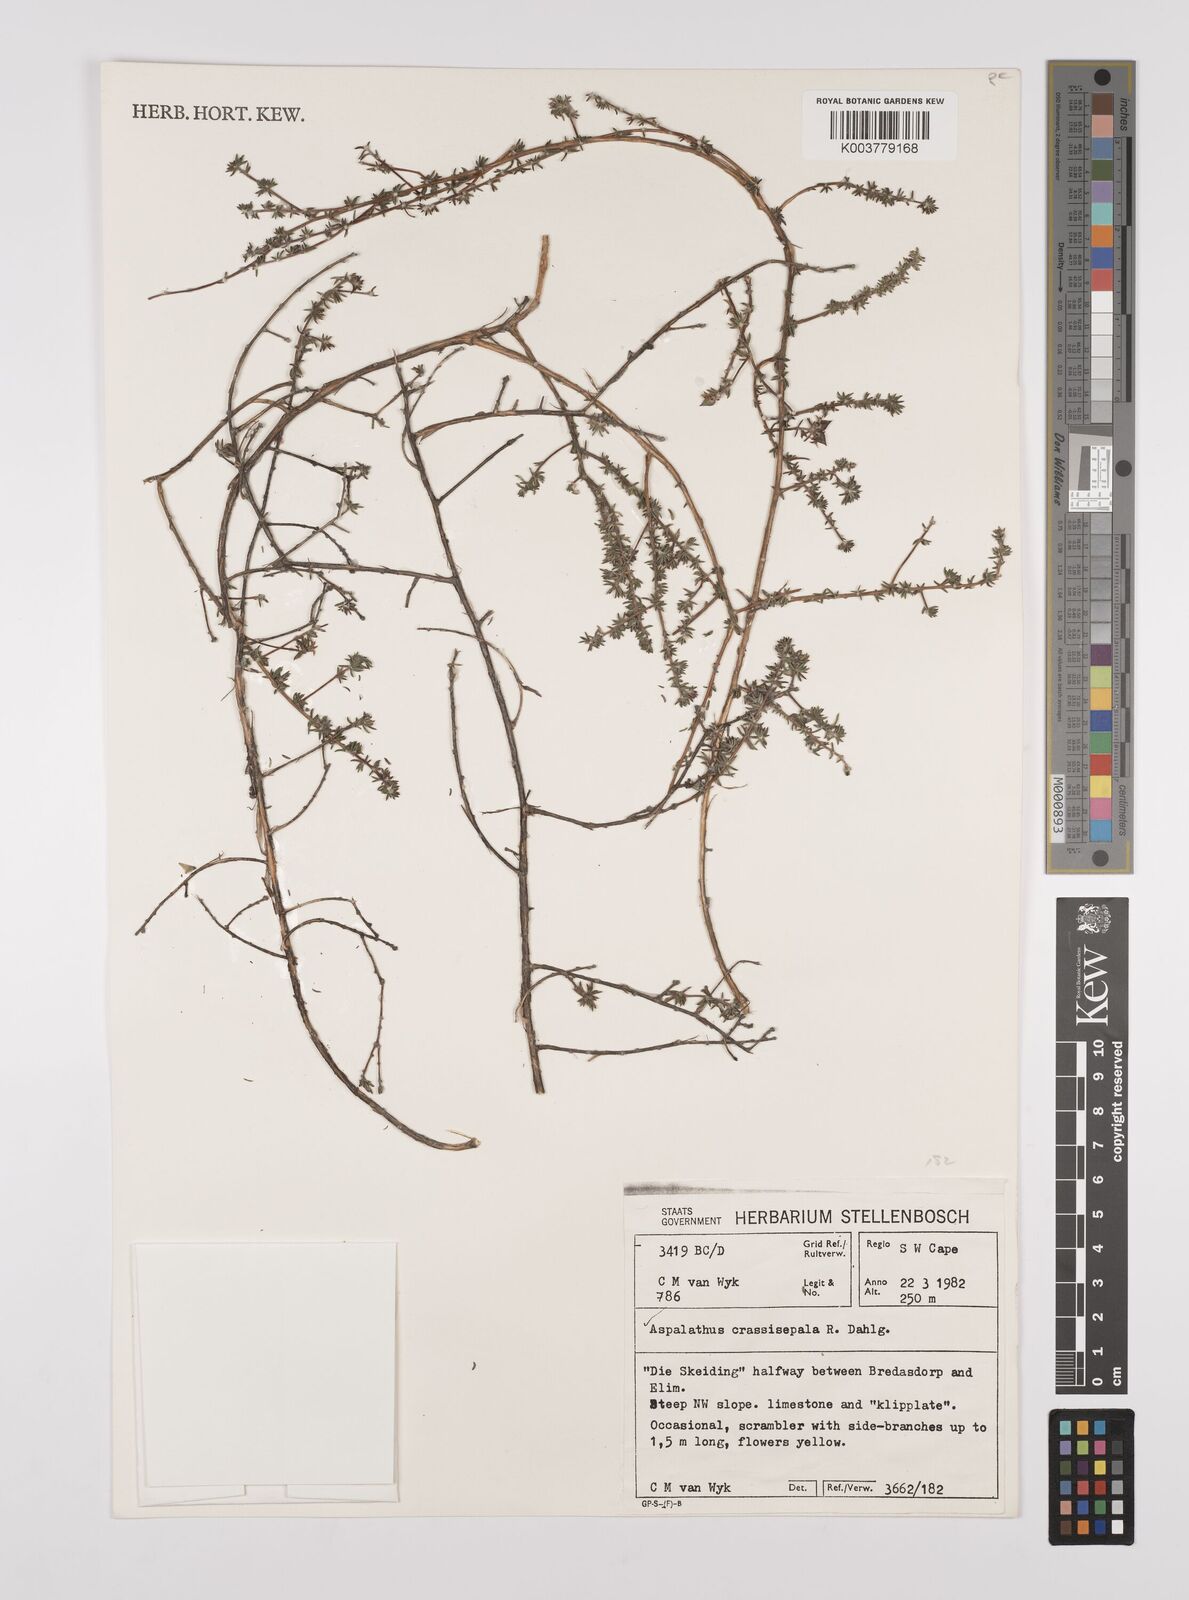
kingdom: Plantae
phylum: Tracheophyta
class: Magnoliopsida
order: Fabales
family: Fabaceae
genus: Aspalathus
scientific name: Aspalathus crassisepala
